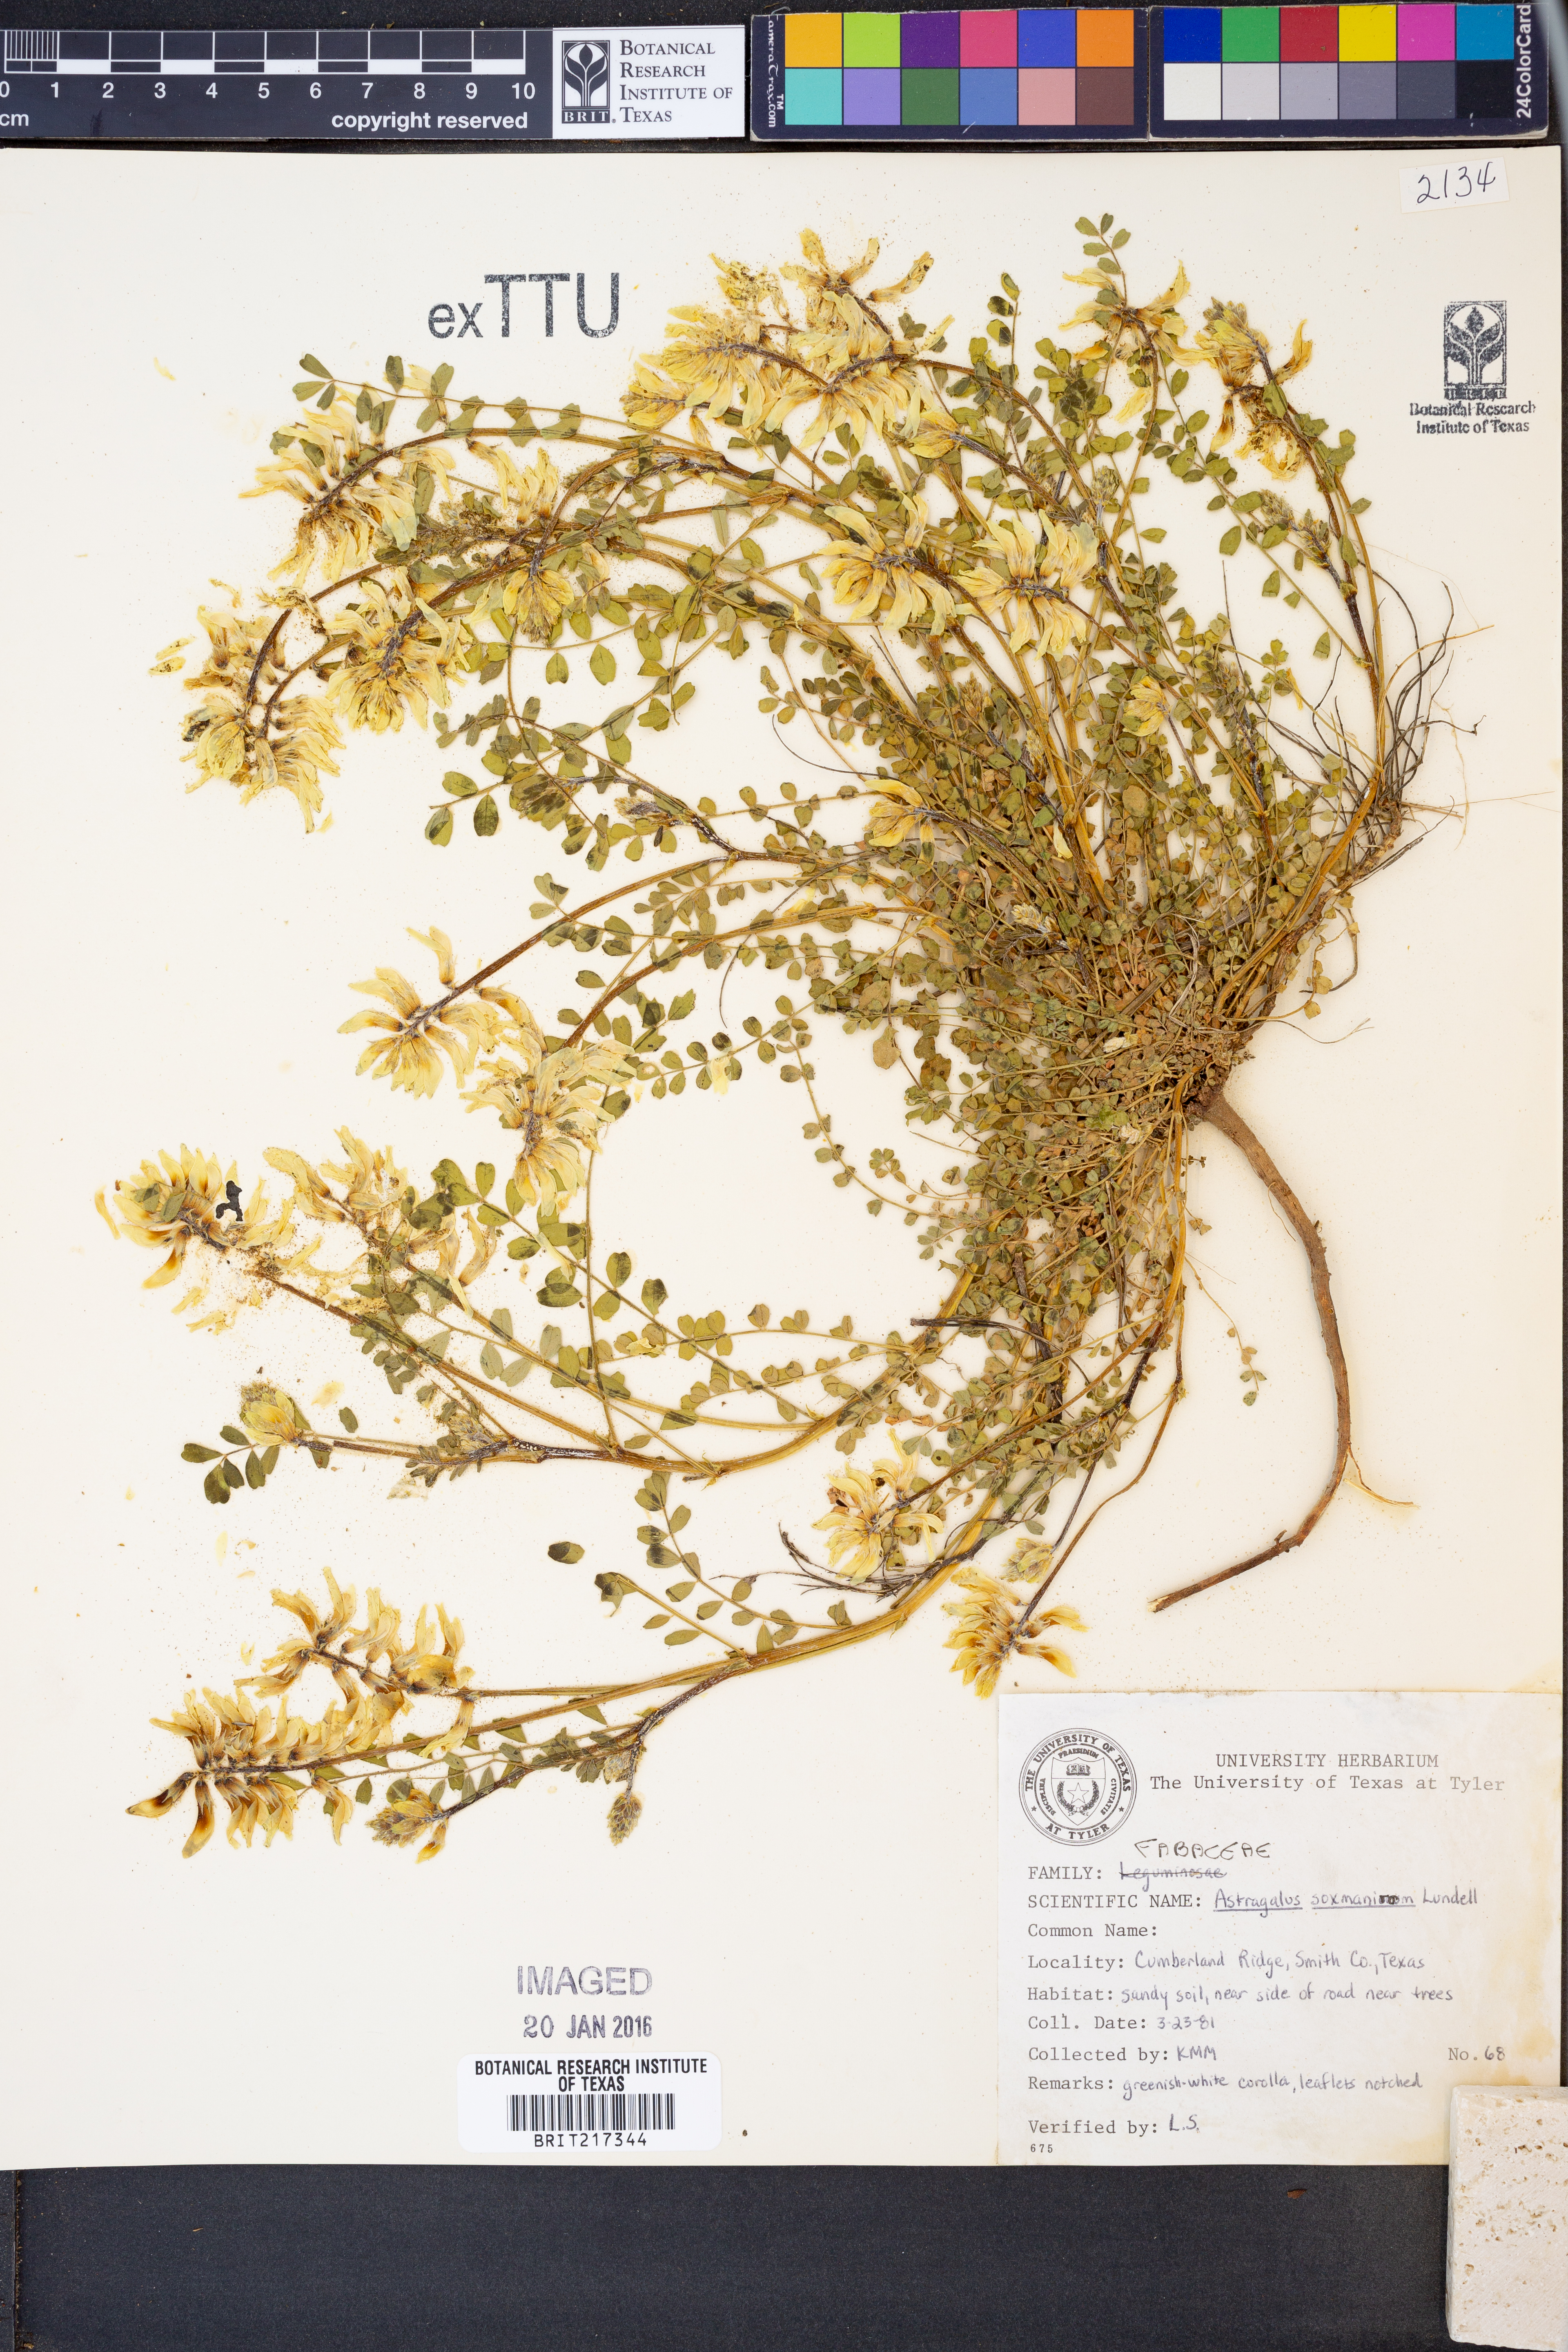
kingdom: Plantae
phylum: Tracheophyta
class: Magnoliopsida
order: Fabales
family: Fabaceae
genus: Astragalus
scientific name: Astragalus soxmaniorum
